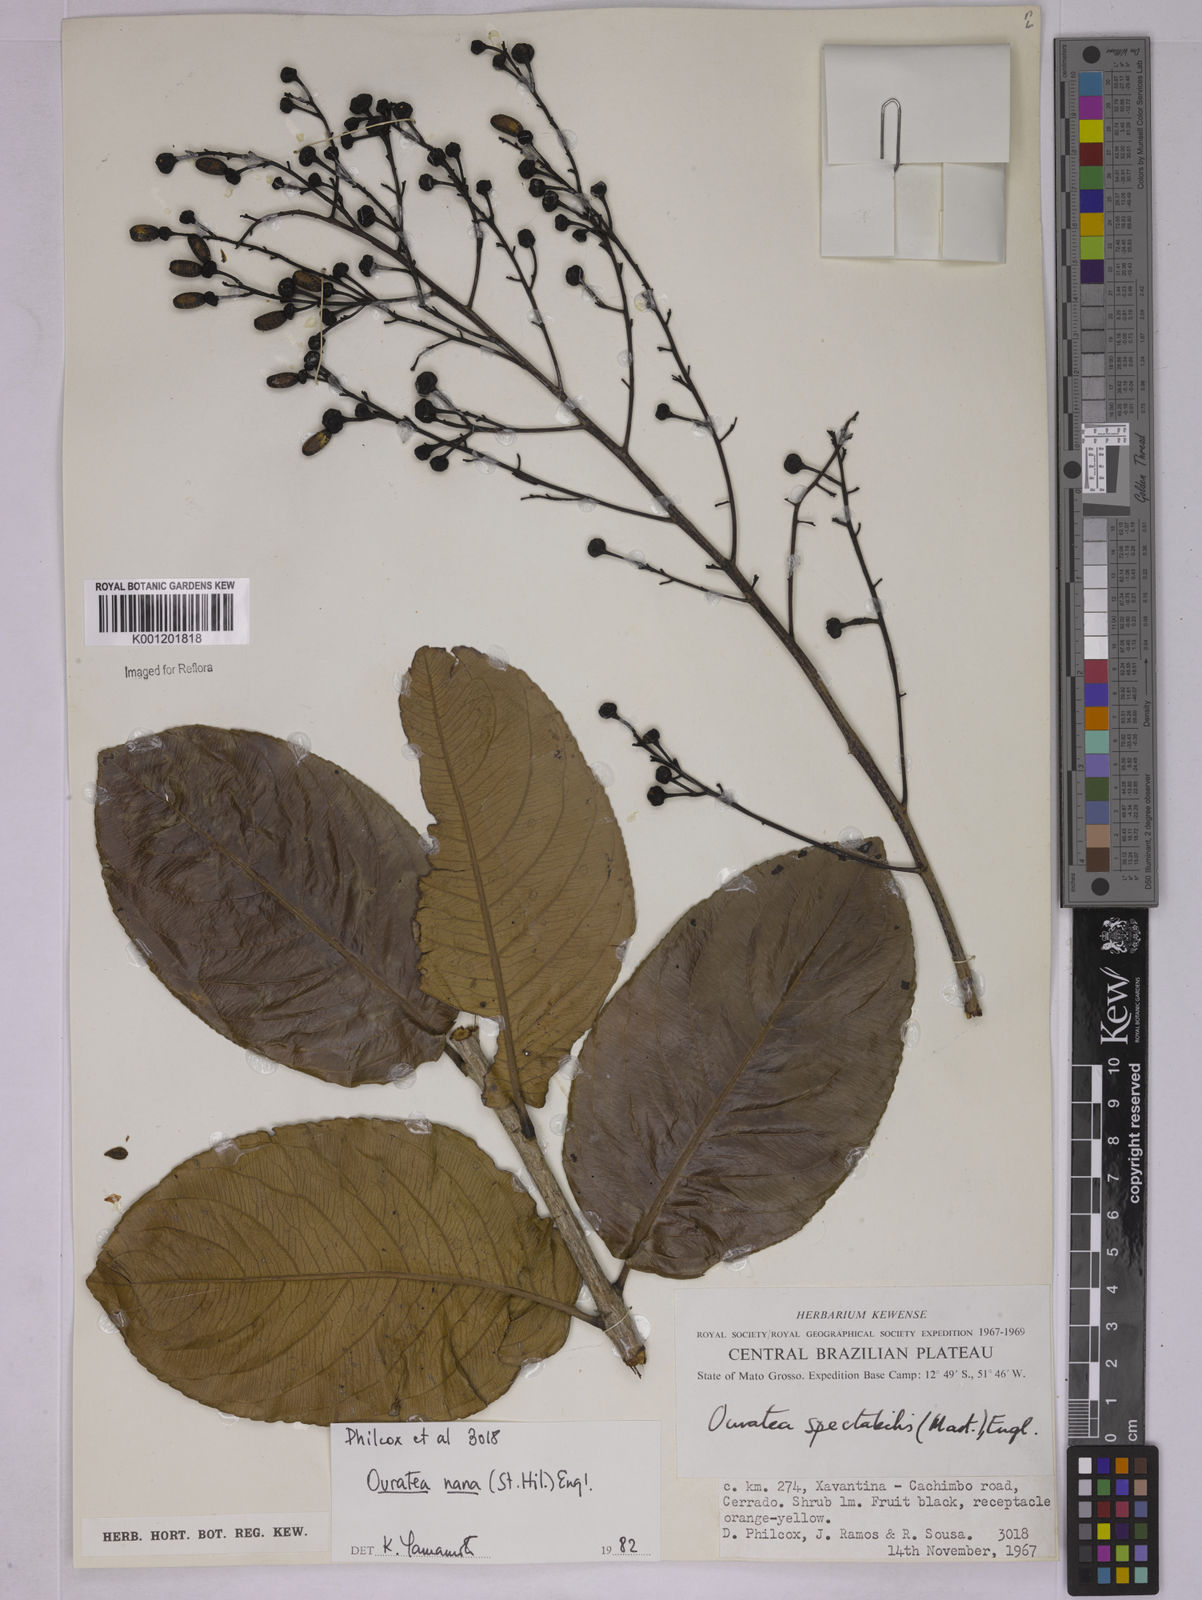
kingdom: Plantae
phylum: Tracheophyta
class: Magnoliopsida
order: Malpighiales
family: Ochnaceae
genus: Ouratea
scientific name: Ouratea nana
